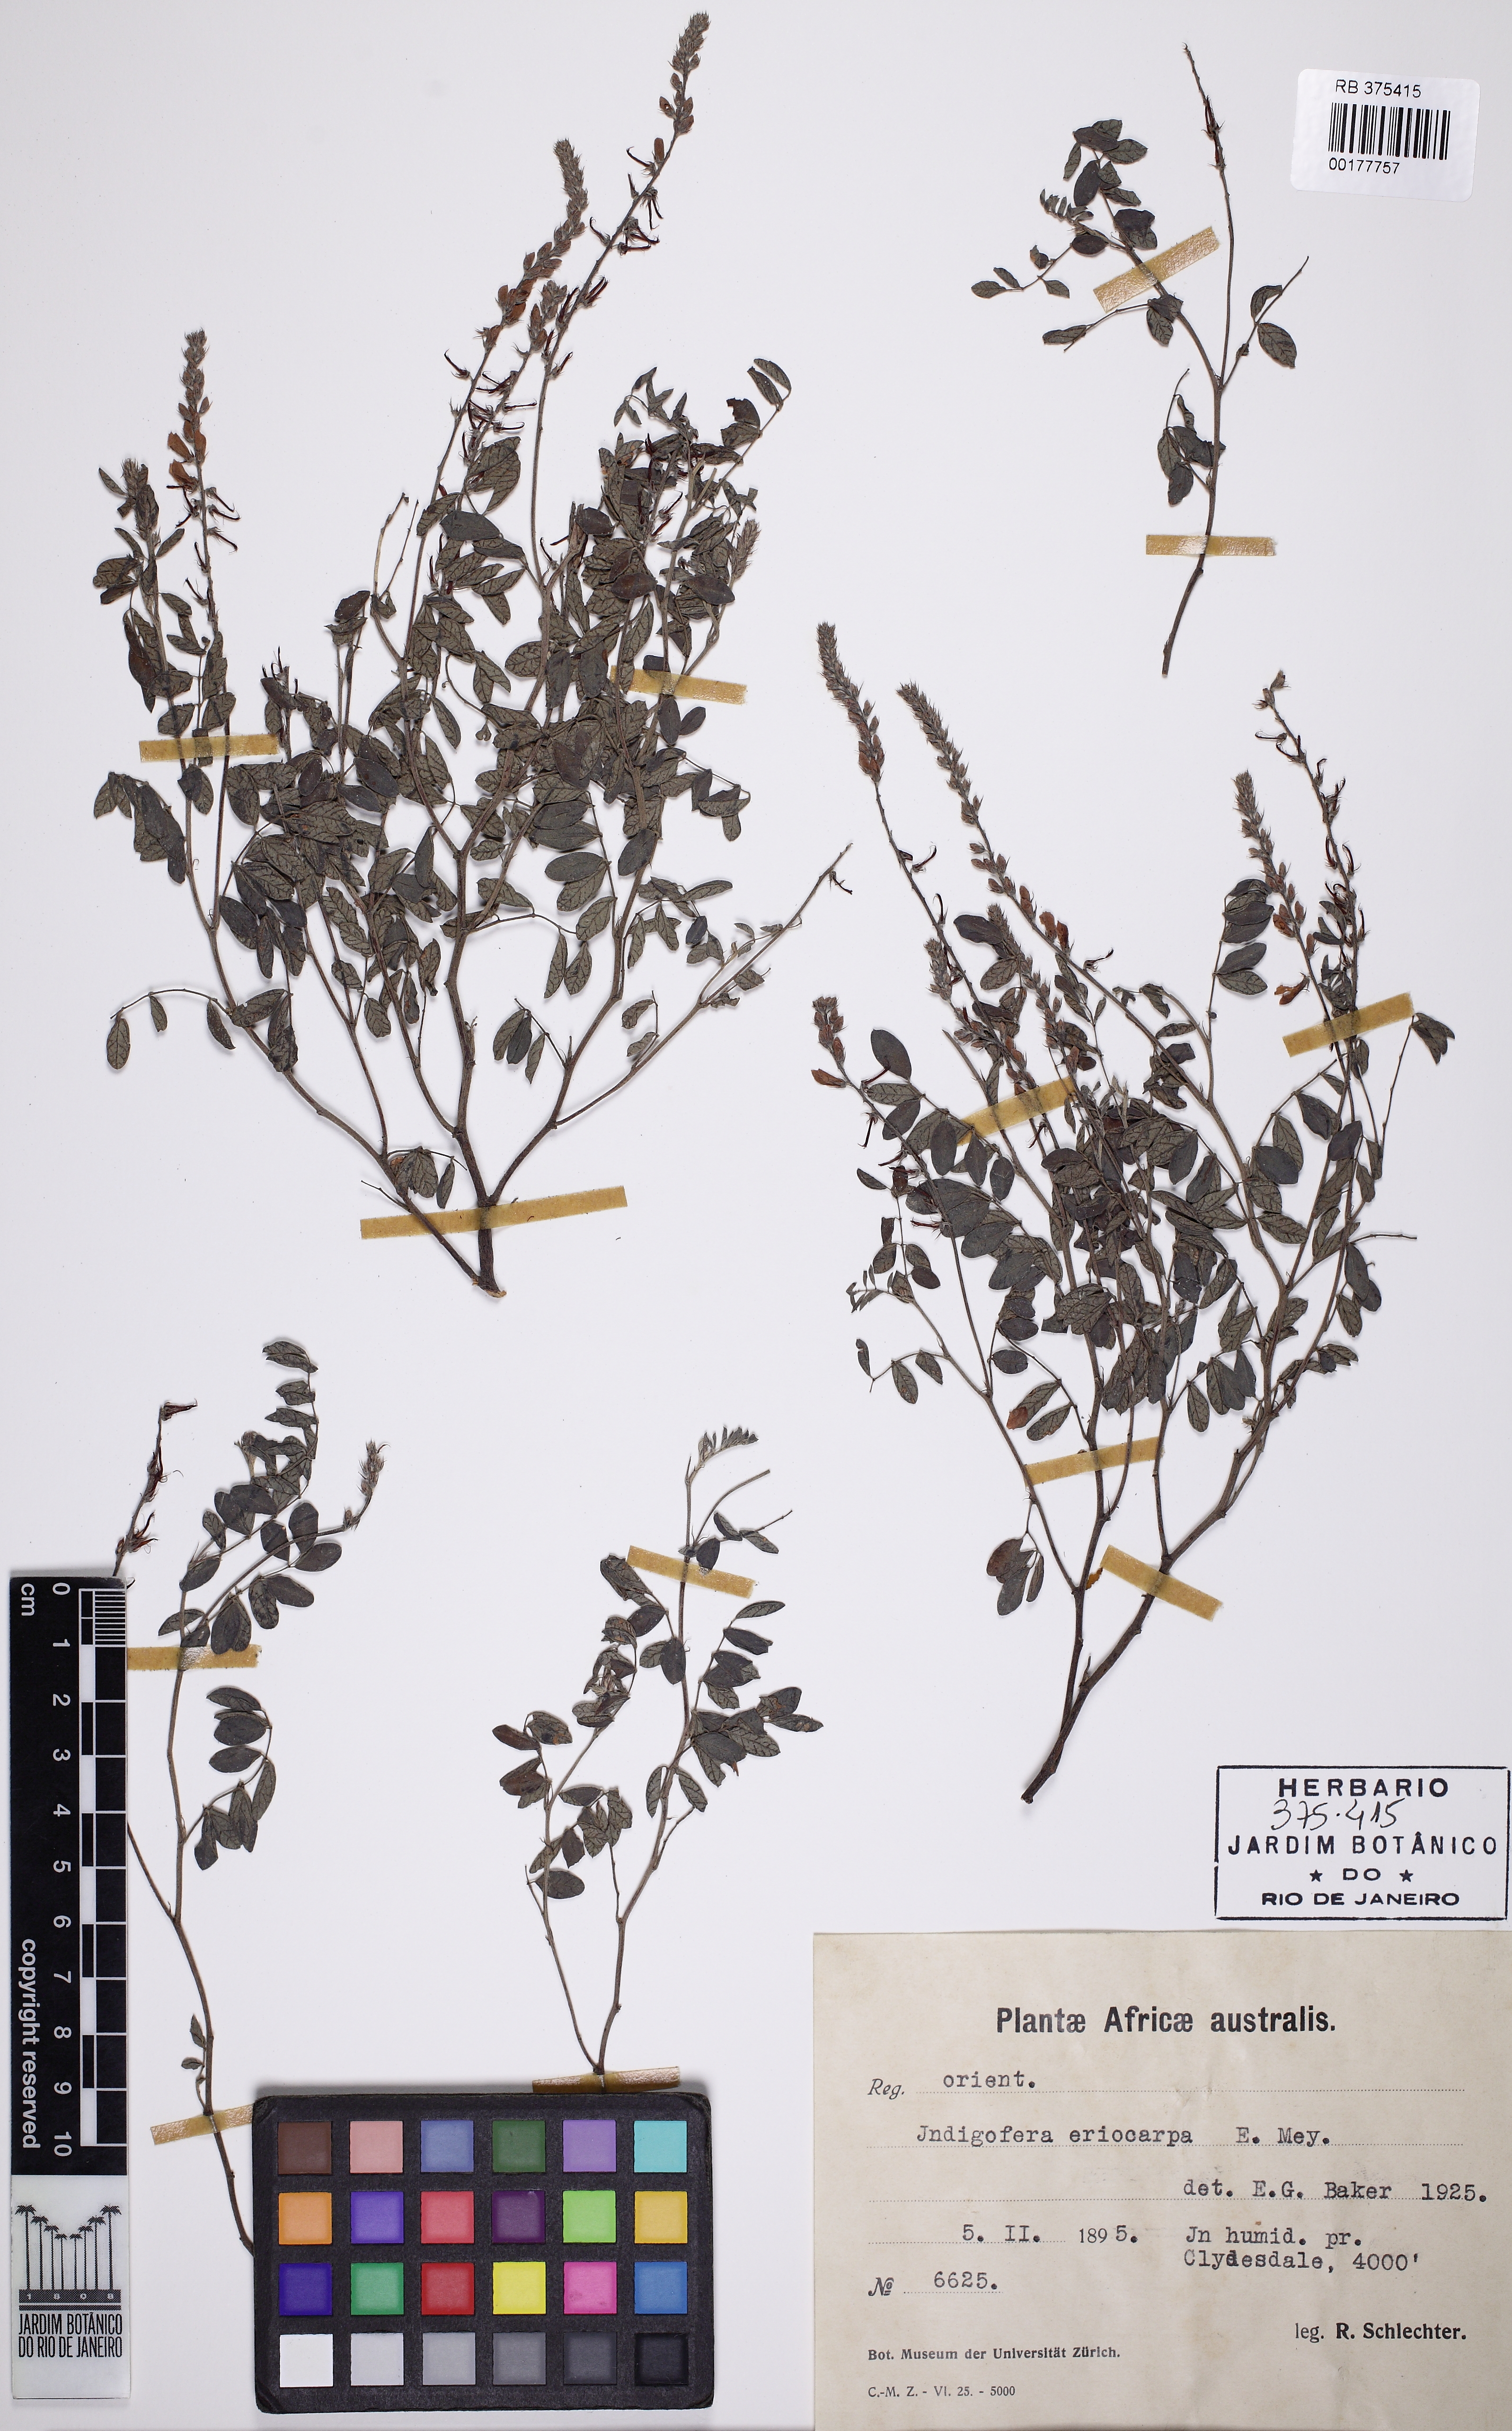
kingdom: Plantae
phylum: Tracheophyta
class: Magnoliopsida
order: Fabales
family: Fabaceae
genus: Indigofera
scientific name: Indigofera eriocarpa
